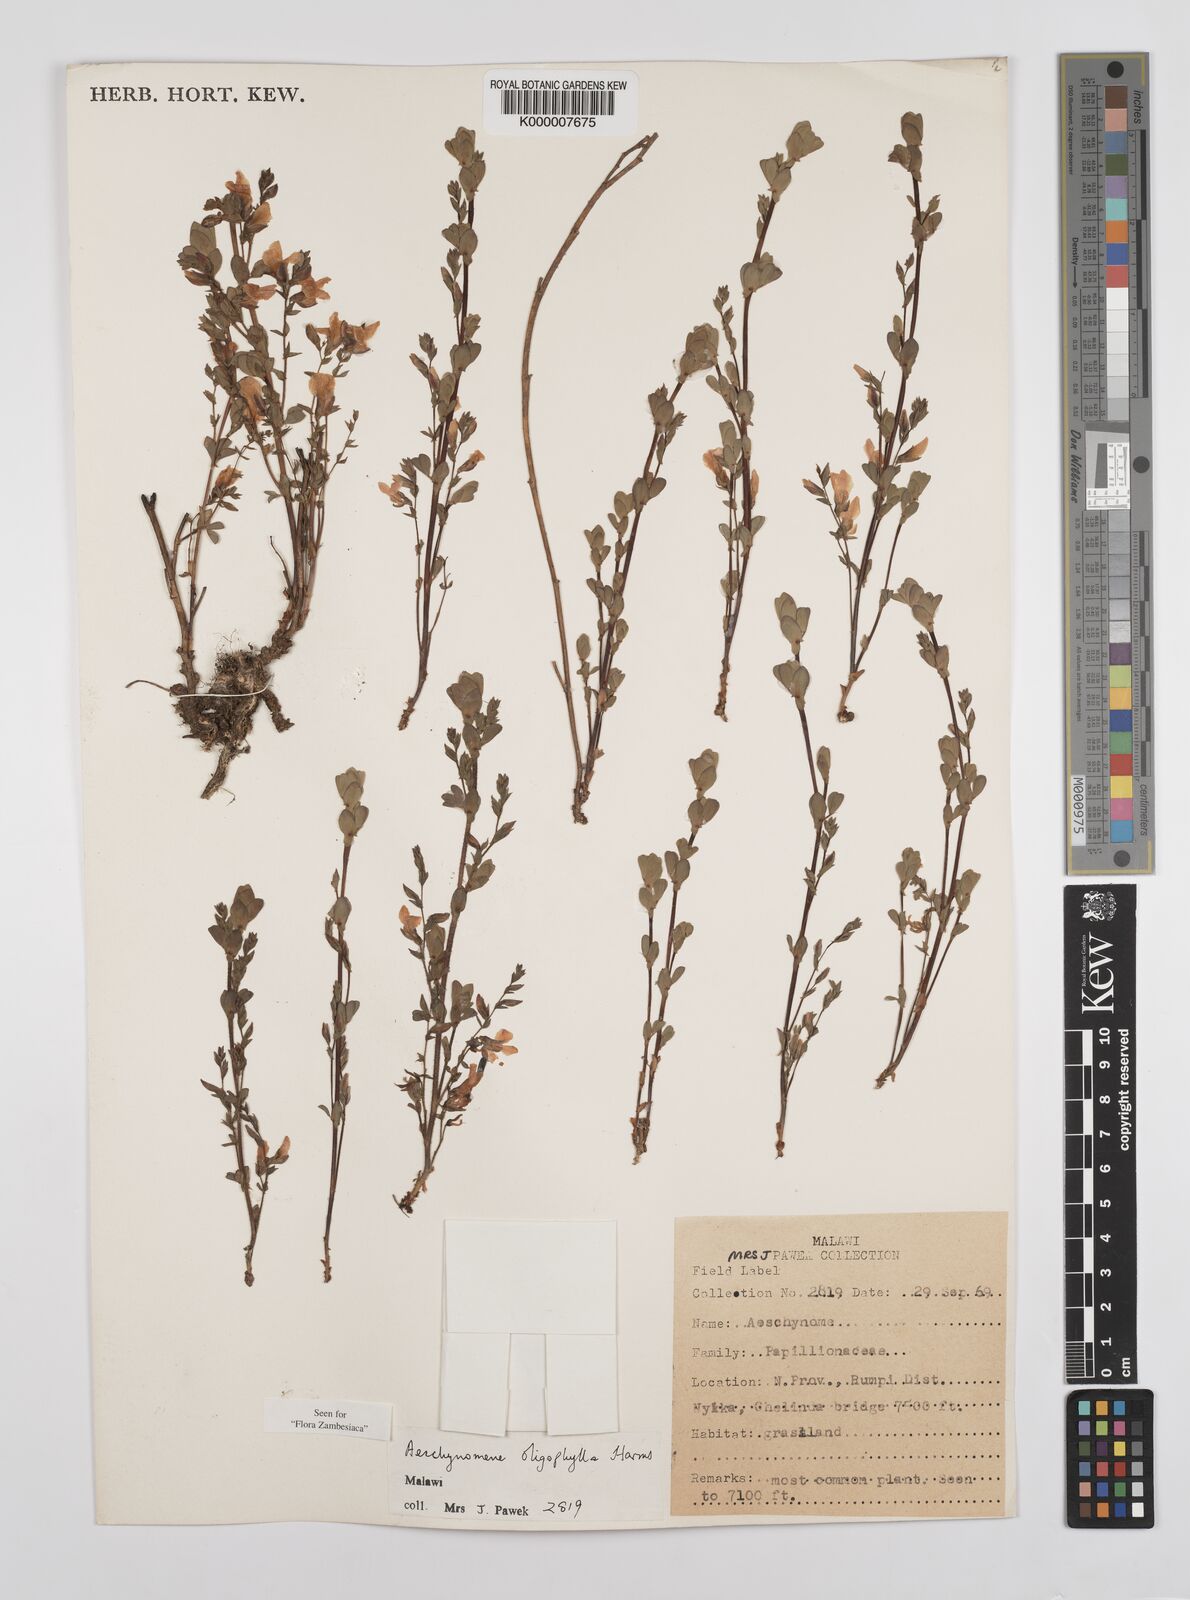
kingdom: Plantae
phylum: Tracheophyta
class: Magnoliopsida
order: Fabales
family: Fabaceae
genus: Aeschynomene
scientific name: Aeschynomene oligophylla
